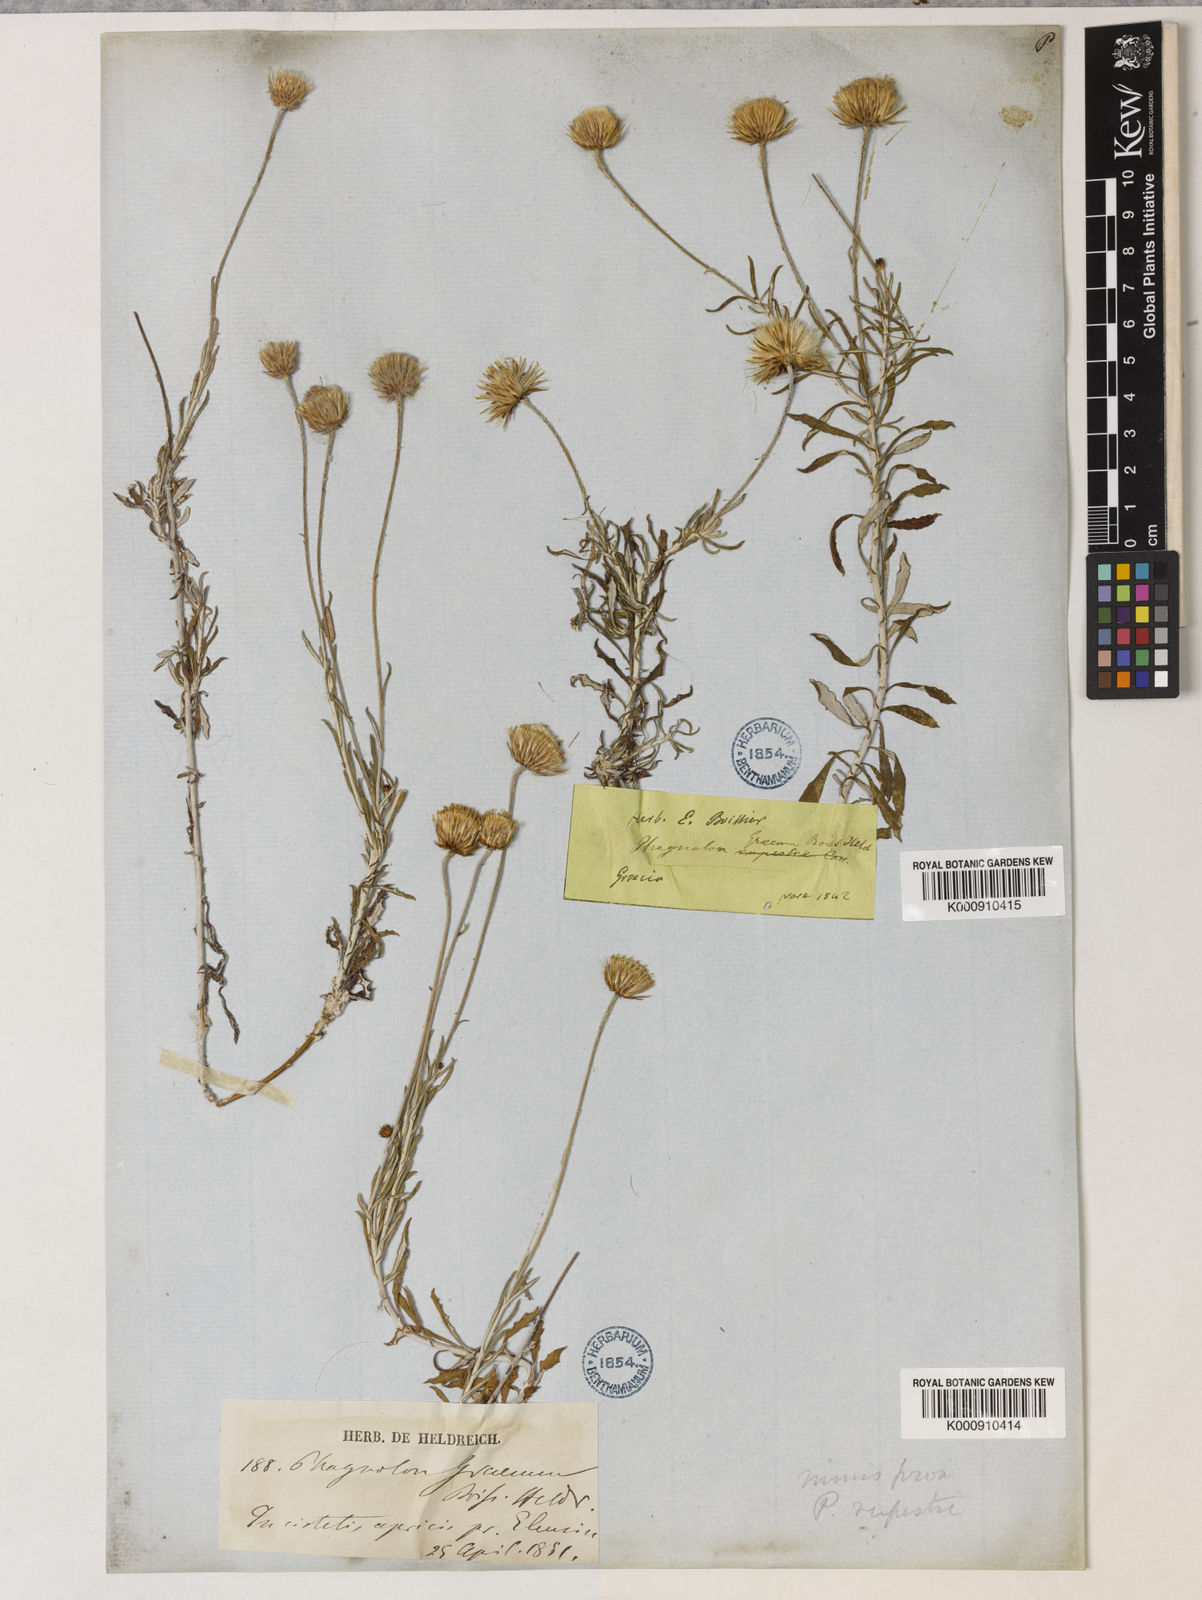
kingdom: Plantae
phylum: Tracheophyta
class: Magnoliopsida
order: Asterales
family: Asteraceae
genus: Phagnalon
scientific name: Phagnalon graecum
